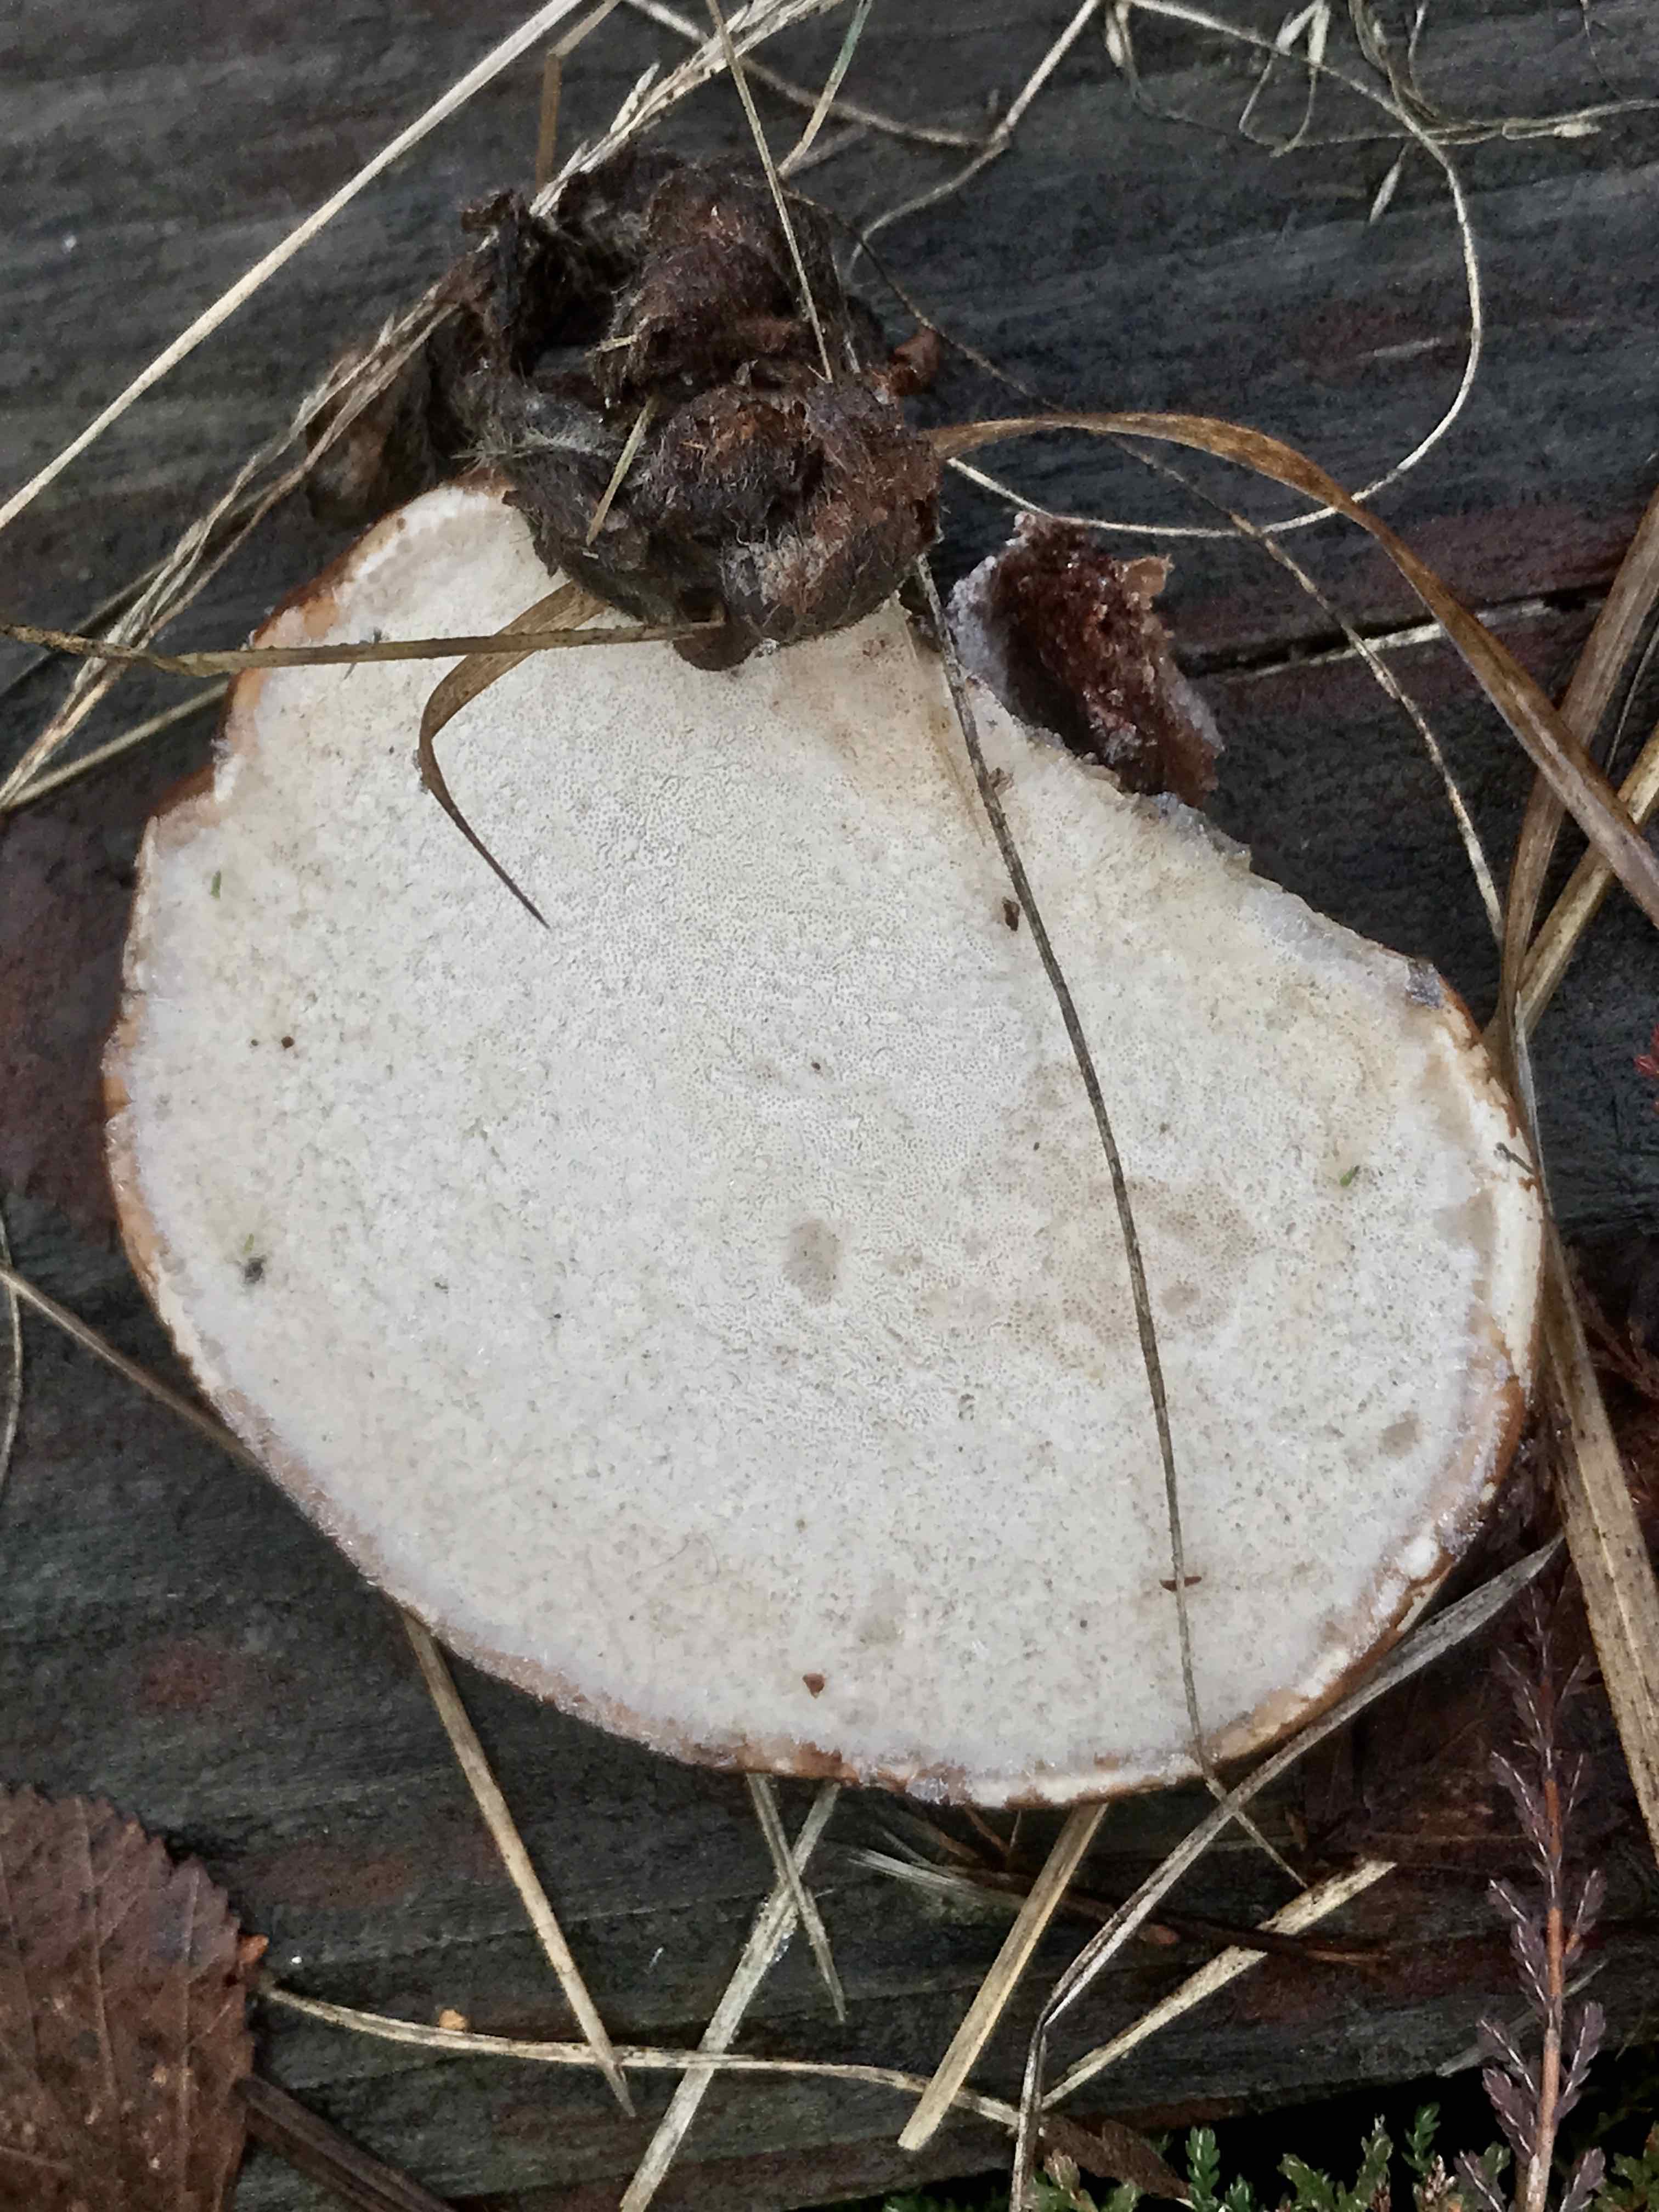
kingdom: Fungi
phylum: Basidiomycota
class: Agaricomycetes
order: Polyporales
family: Fomitopsidaceae
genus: Fomitopsis
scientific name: Fomitopsis betulina
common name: birkeporesvamp
